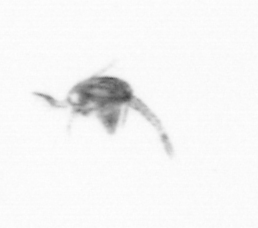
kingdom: Animalia
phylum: Arthropoda
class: Copepoda
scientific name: Copepoda
